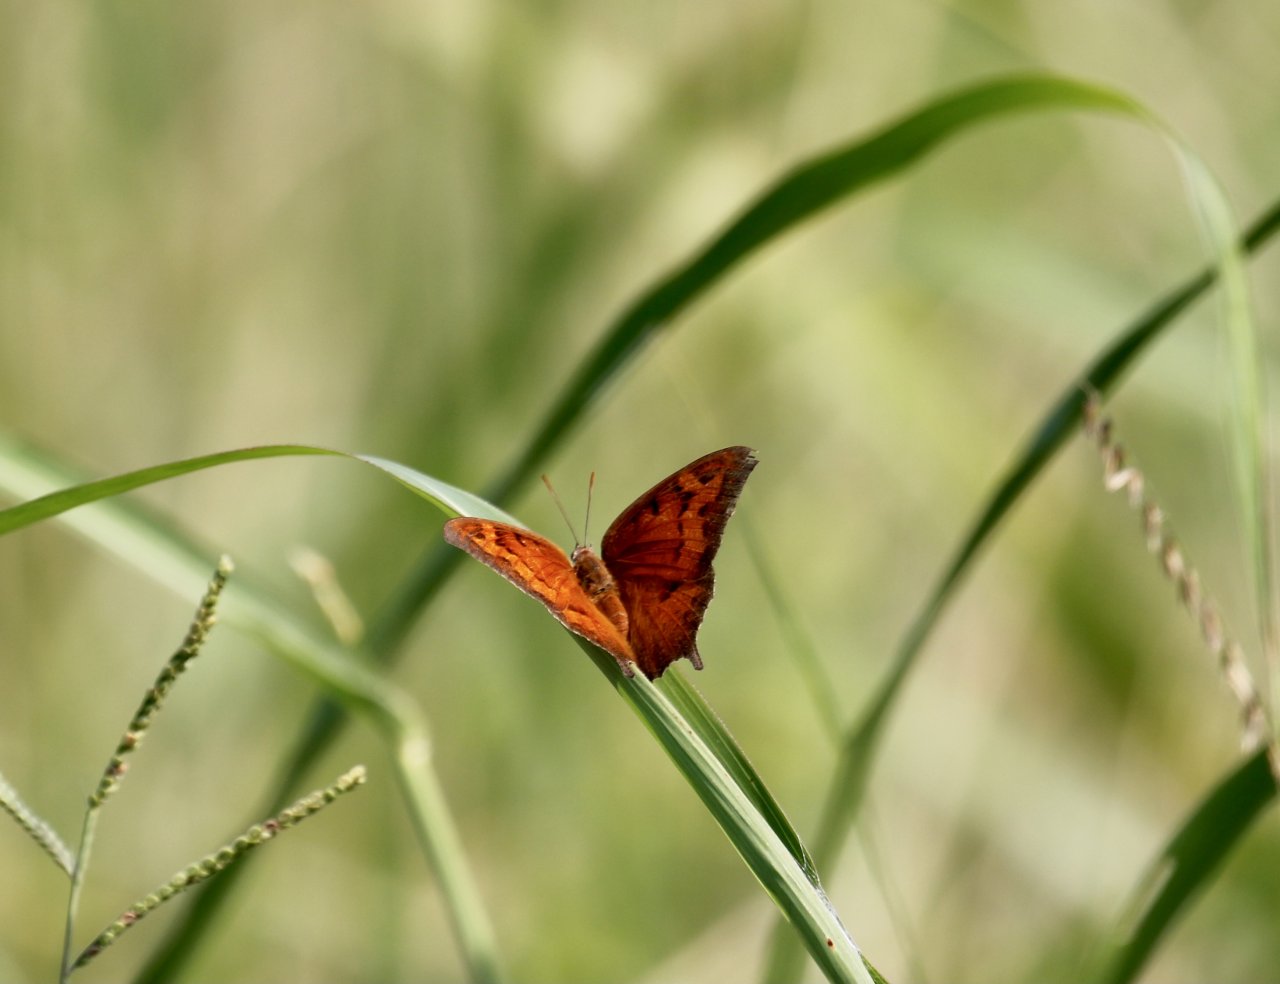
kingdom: Animalia
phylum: Arthropoda
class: Insecta
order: Lepidoptera
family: Nymphalidae
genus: Anaea
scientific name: Anaea andria
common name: Goatweed Leafwing
